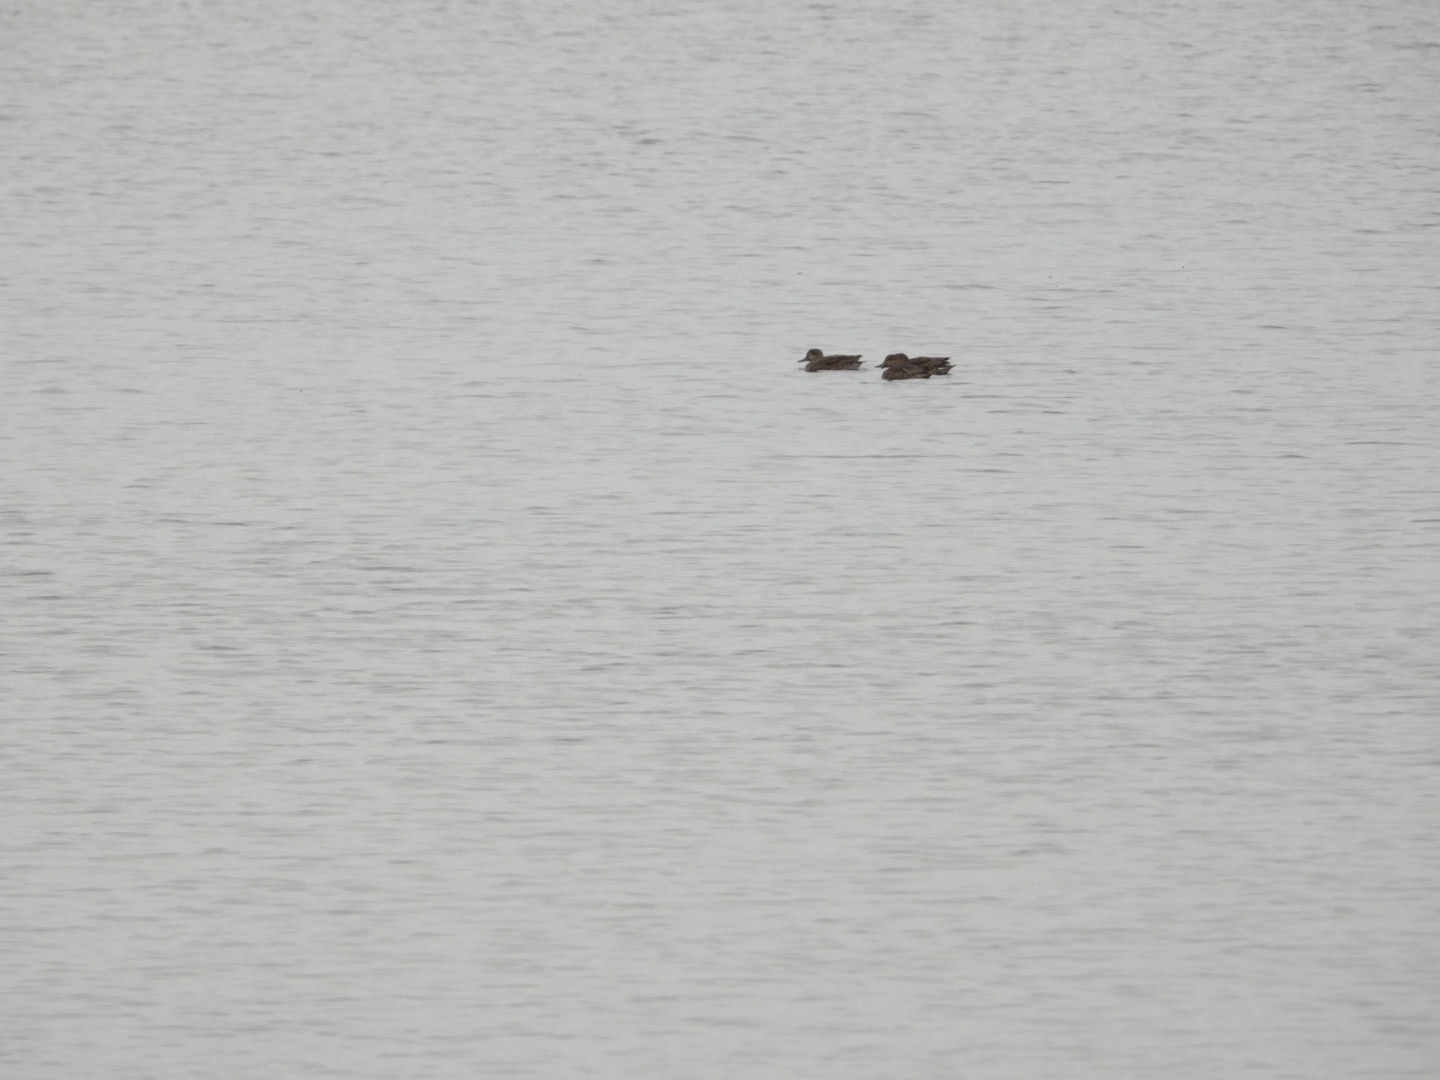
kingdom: Animalia
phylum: Chordata
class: Aves
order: Anseriformes
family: Anatidae
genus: Anas
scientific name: Anas crecca
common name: Krikand
